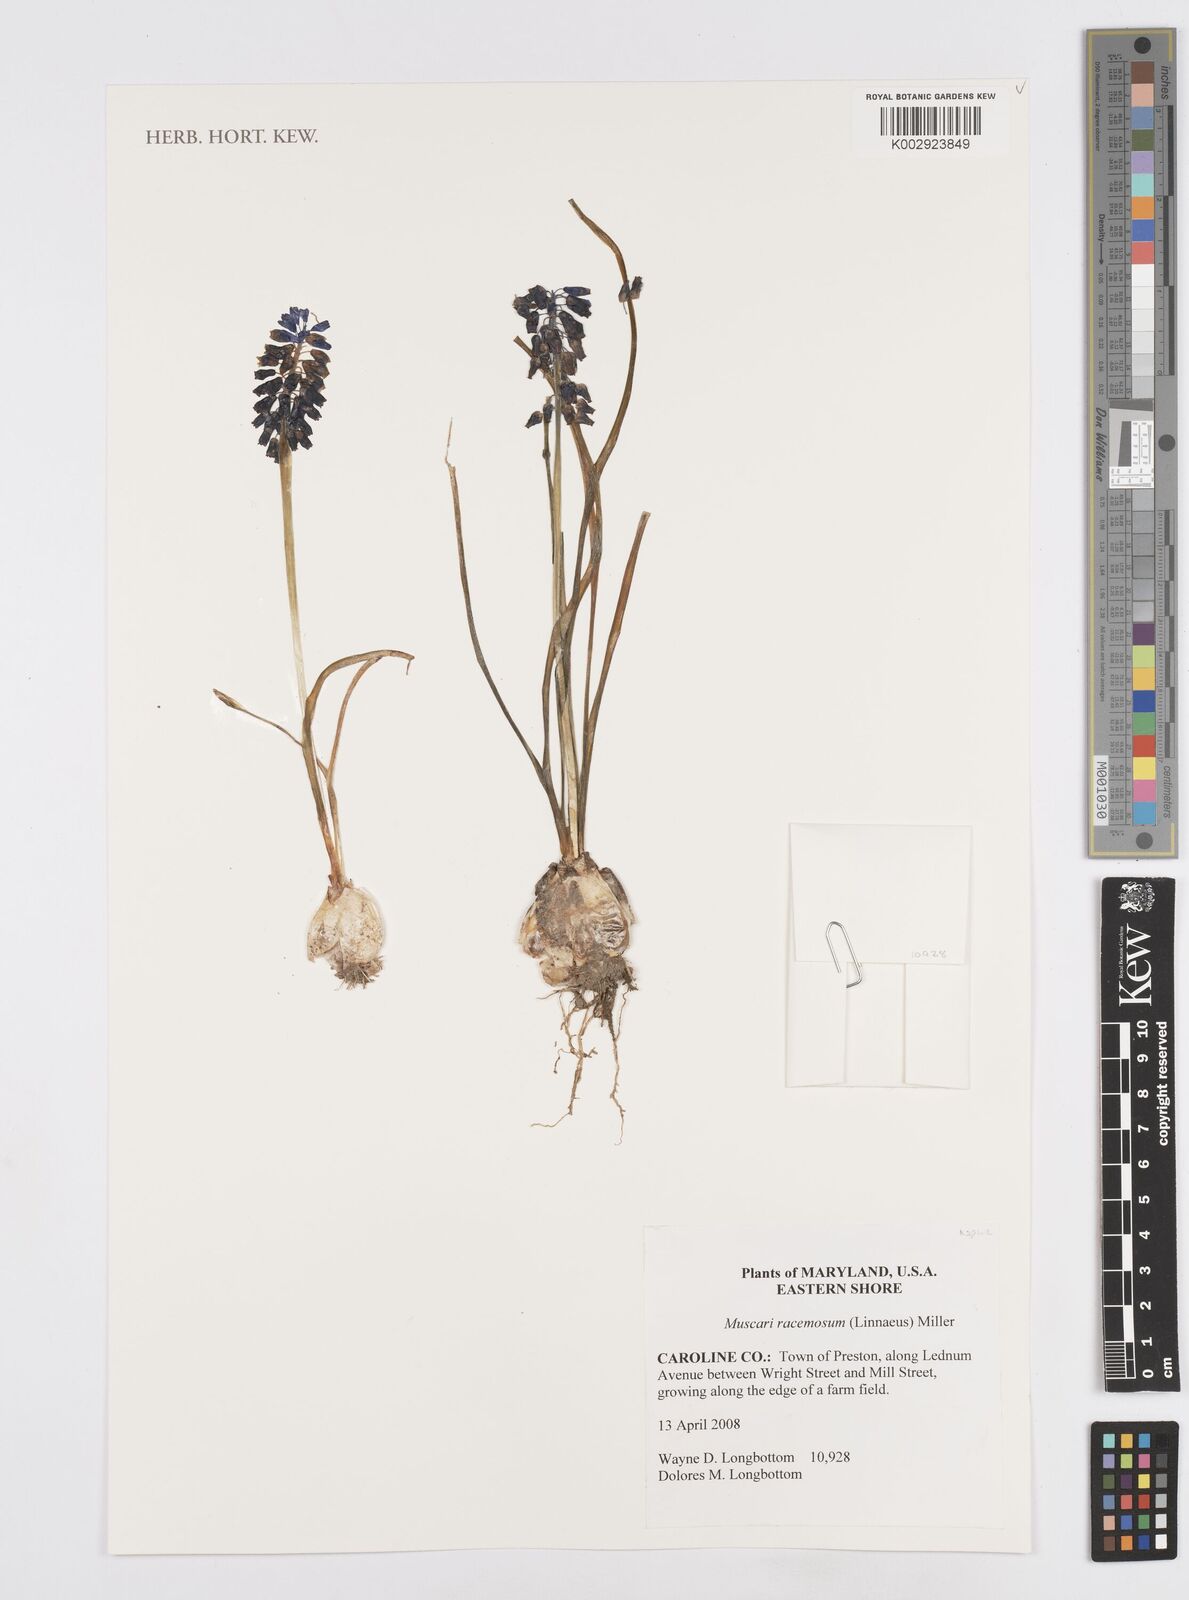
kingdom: Plantae
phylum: Tracheophyta
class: Liliopsida
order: Asparagales
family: Asparagaceae
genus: Muscari
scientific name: Muscari neglectum
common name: Grape-hyacinth
